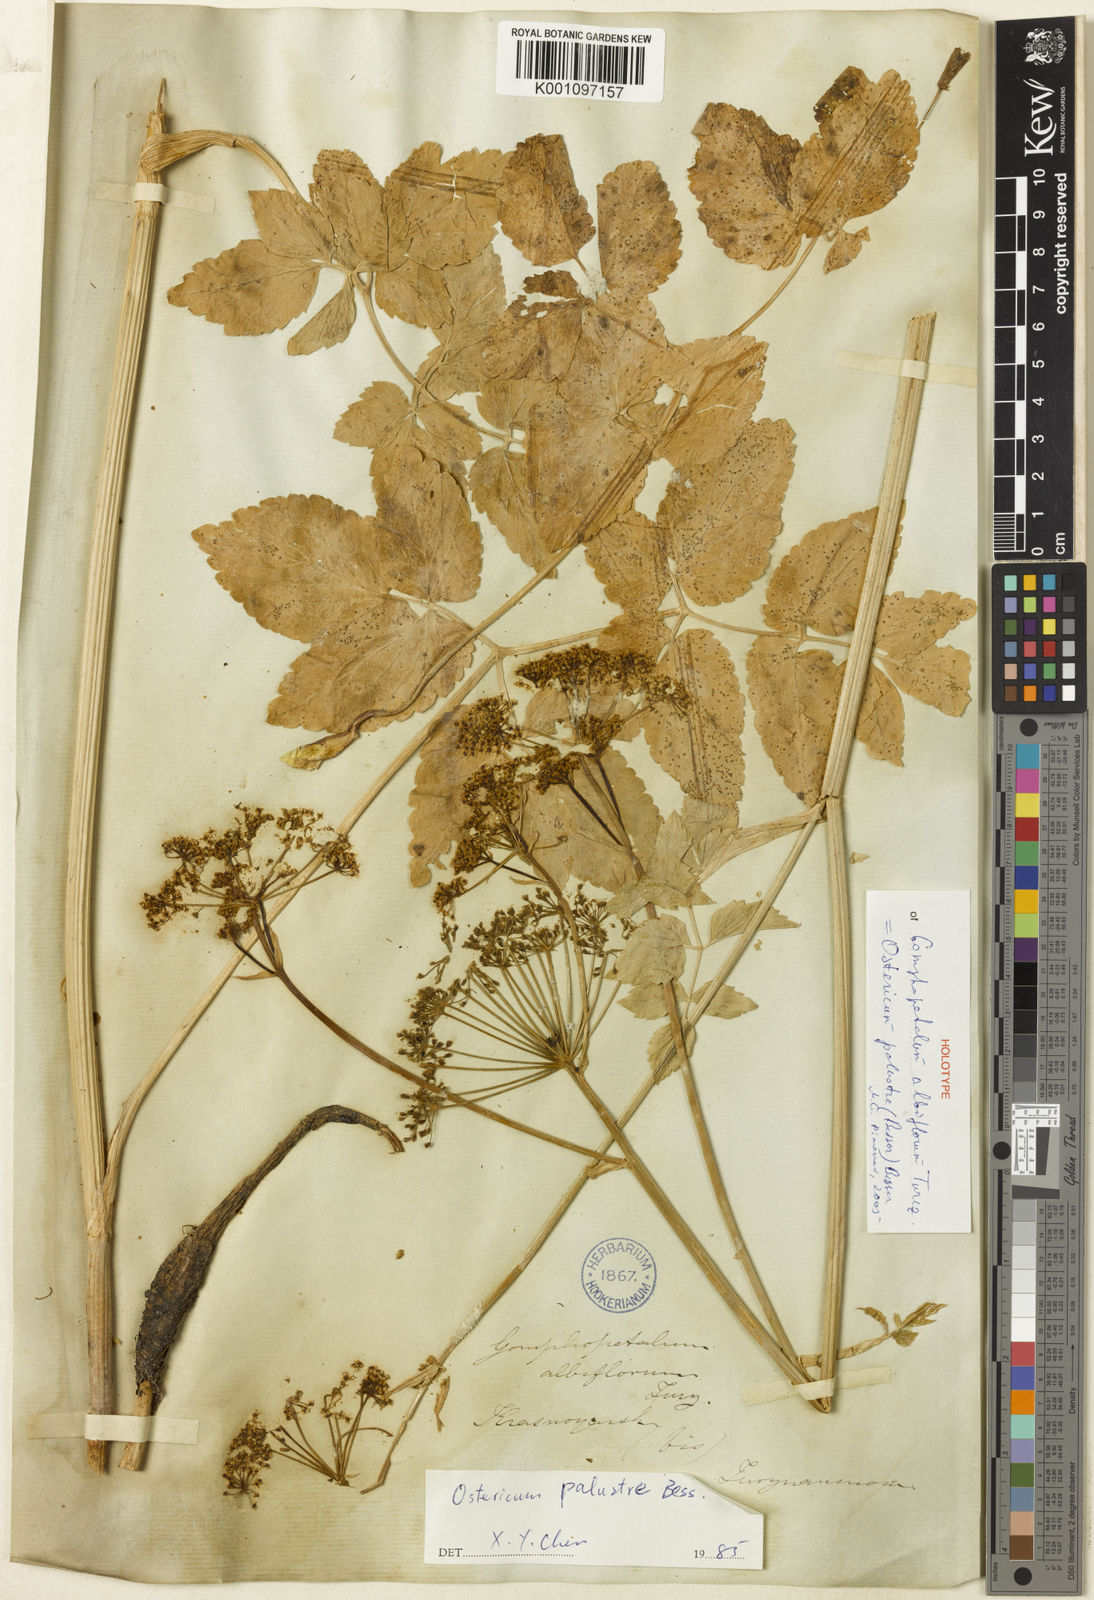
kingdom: Plantae
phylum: Tracheophyta
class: Magnoliopsida
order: Apiales
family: Apiaceae
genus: Ostericum
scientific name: Ostericum viridiflorum
